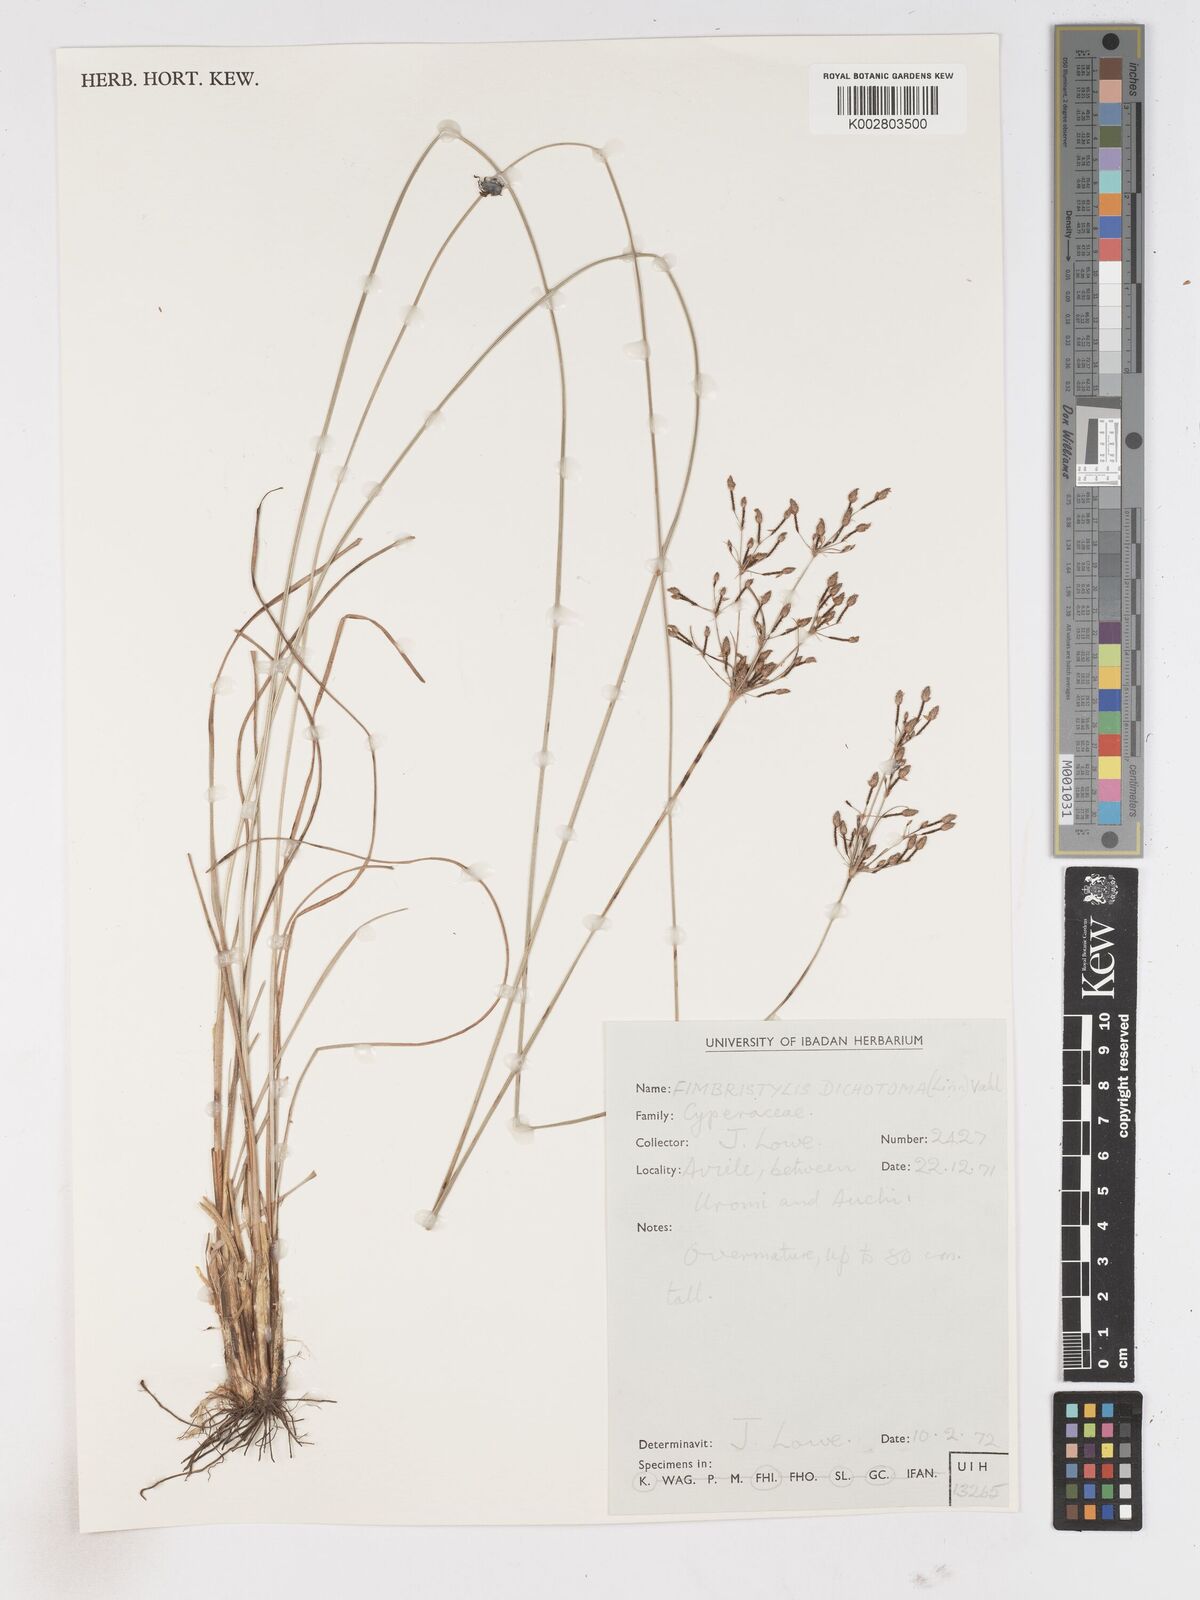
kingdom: Plantae
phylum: Tracheophyta
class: Liliopsida
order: Poales
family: Cyperaceae
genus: Fimbristylis
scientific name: Fimbristylis dichotoma
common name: Forked fimbry
